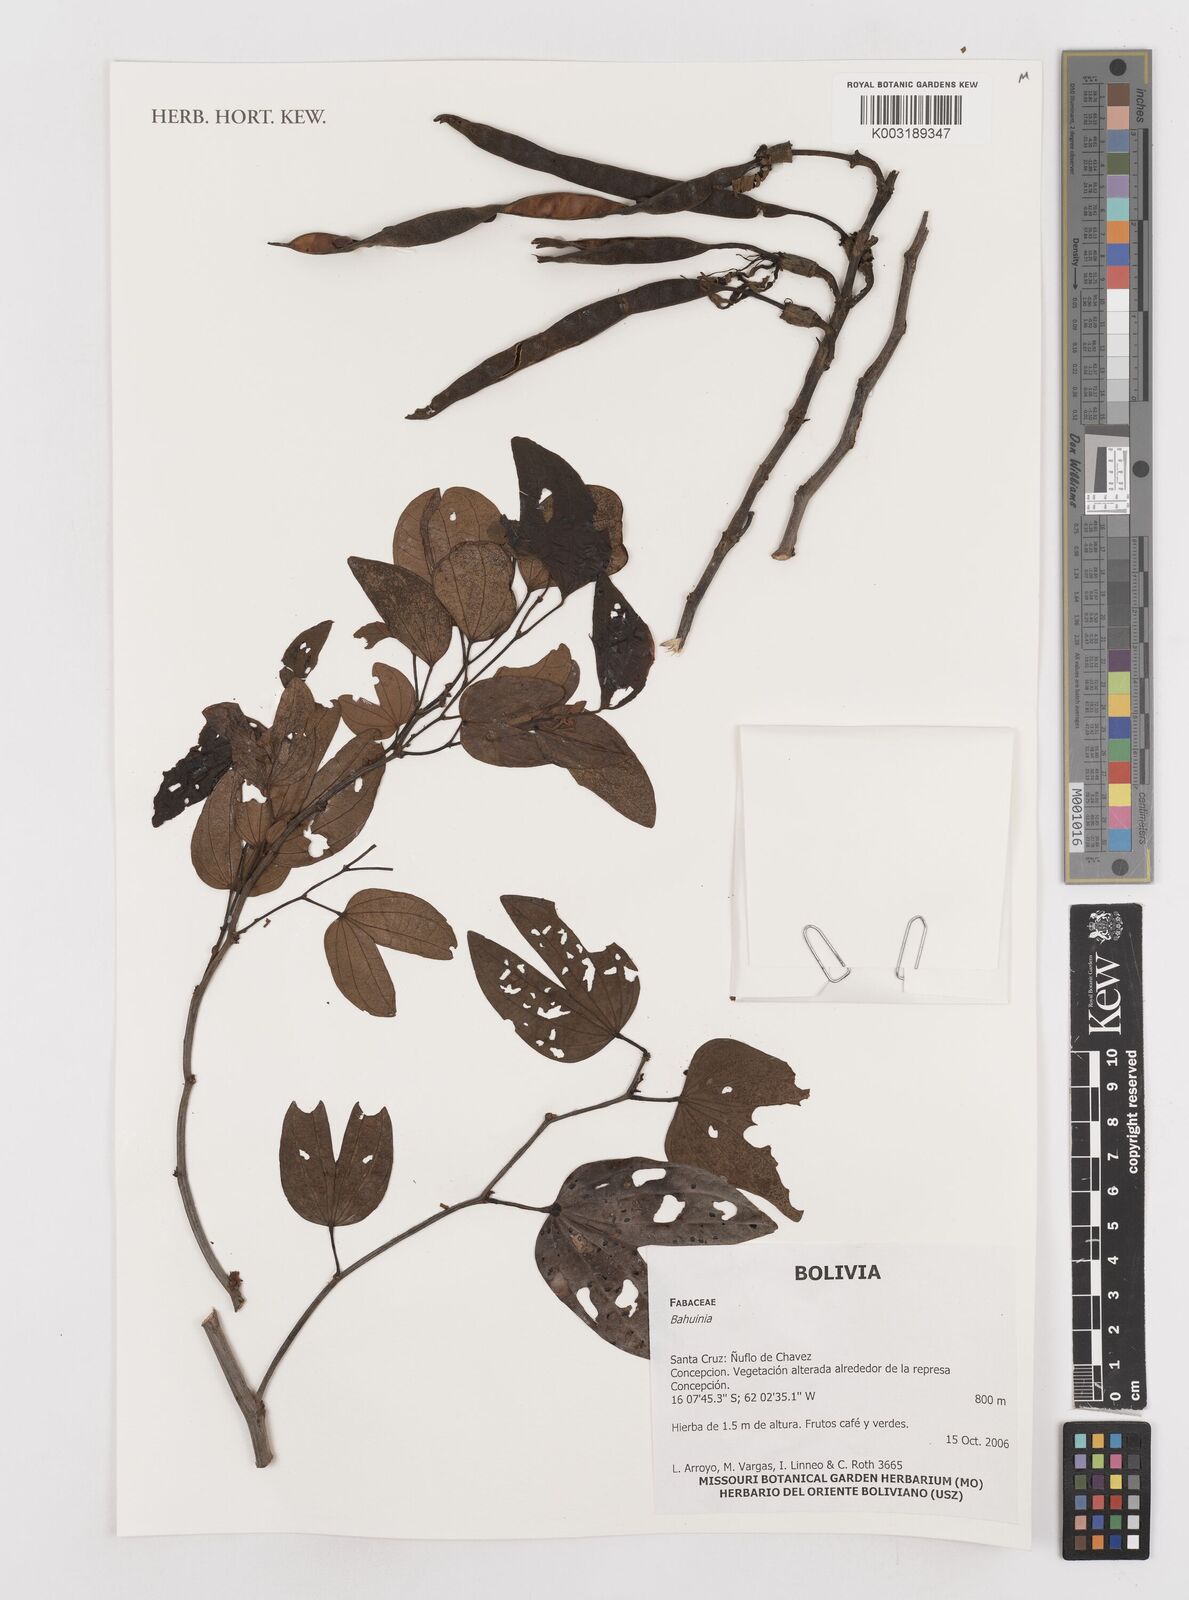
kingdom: Plantae
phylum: Tracheophyta
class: Magnoliopsida
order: Fabales
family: Fabaceae
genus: Bauhinia
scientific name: Bauhinia
